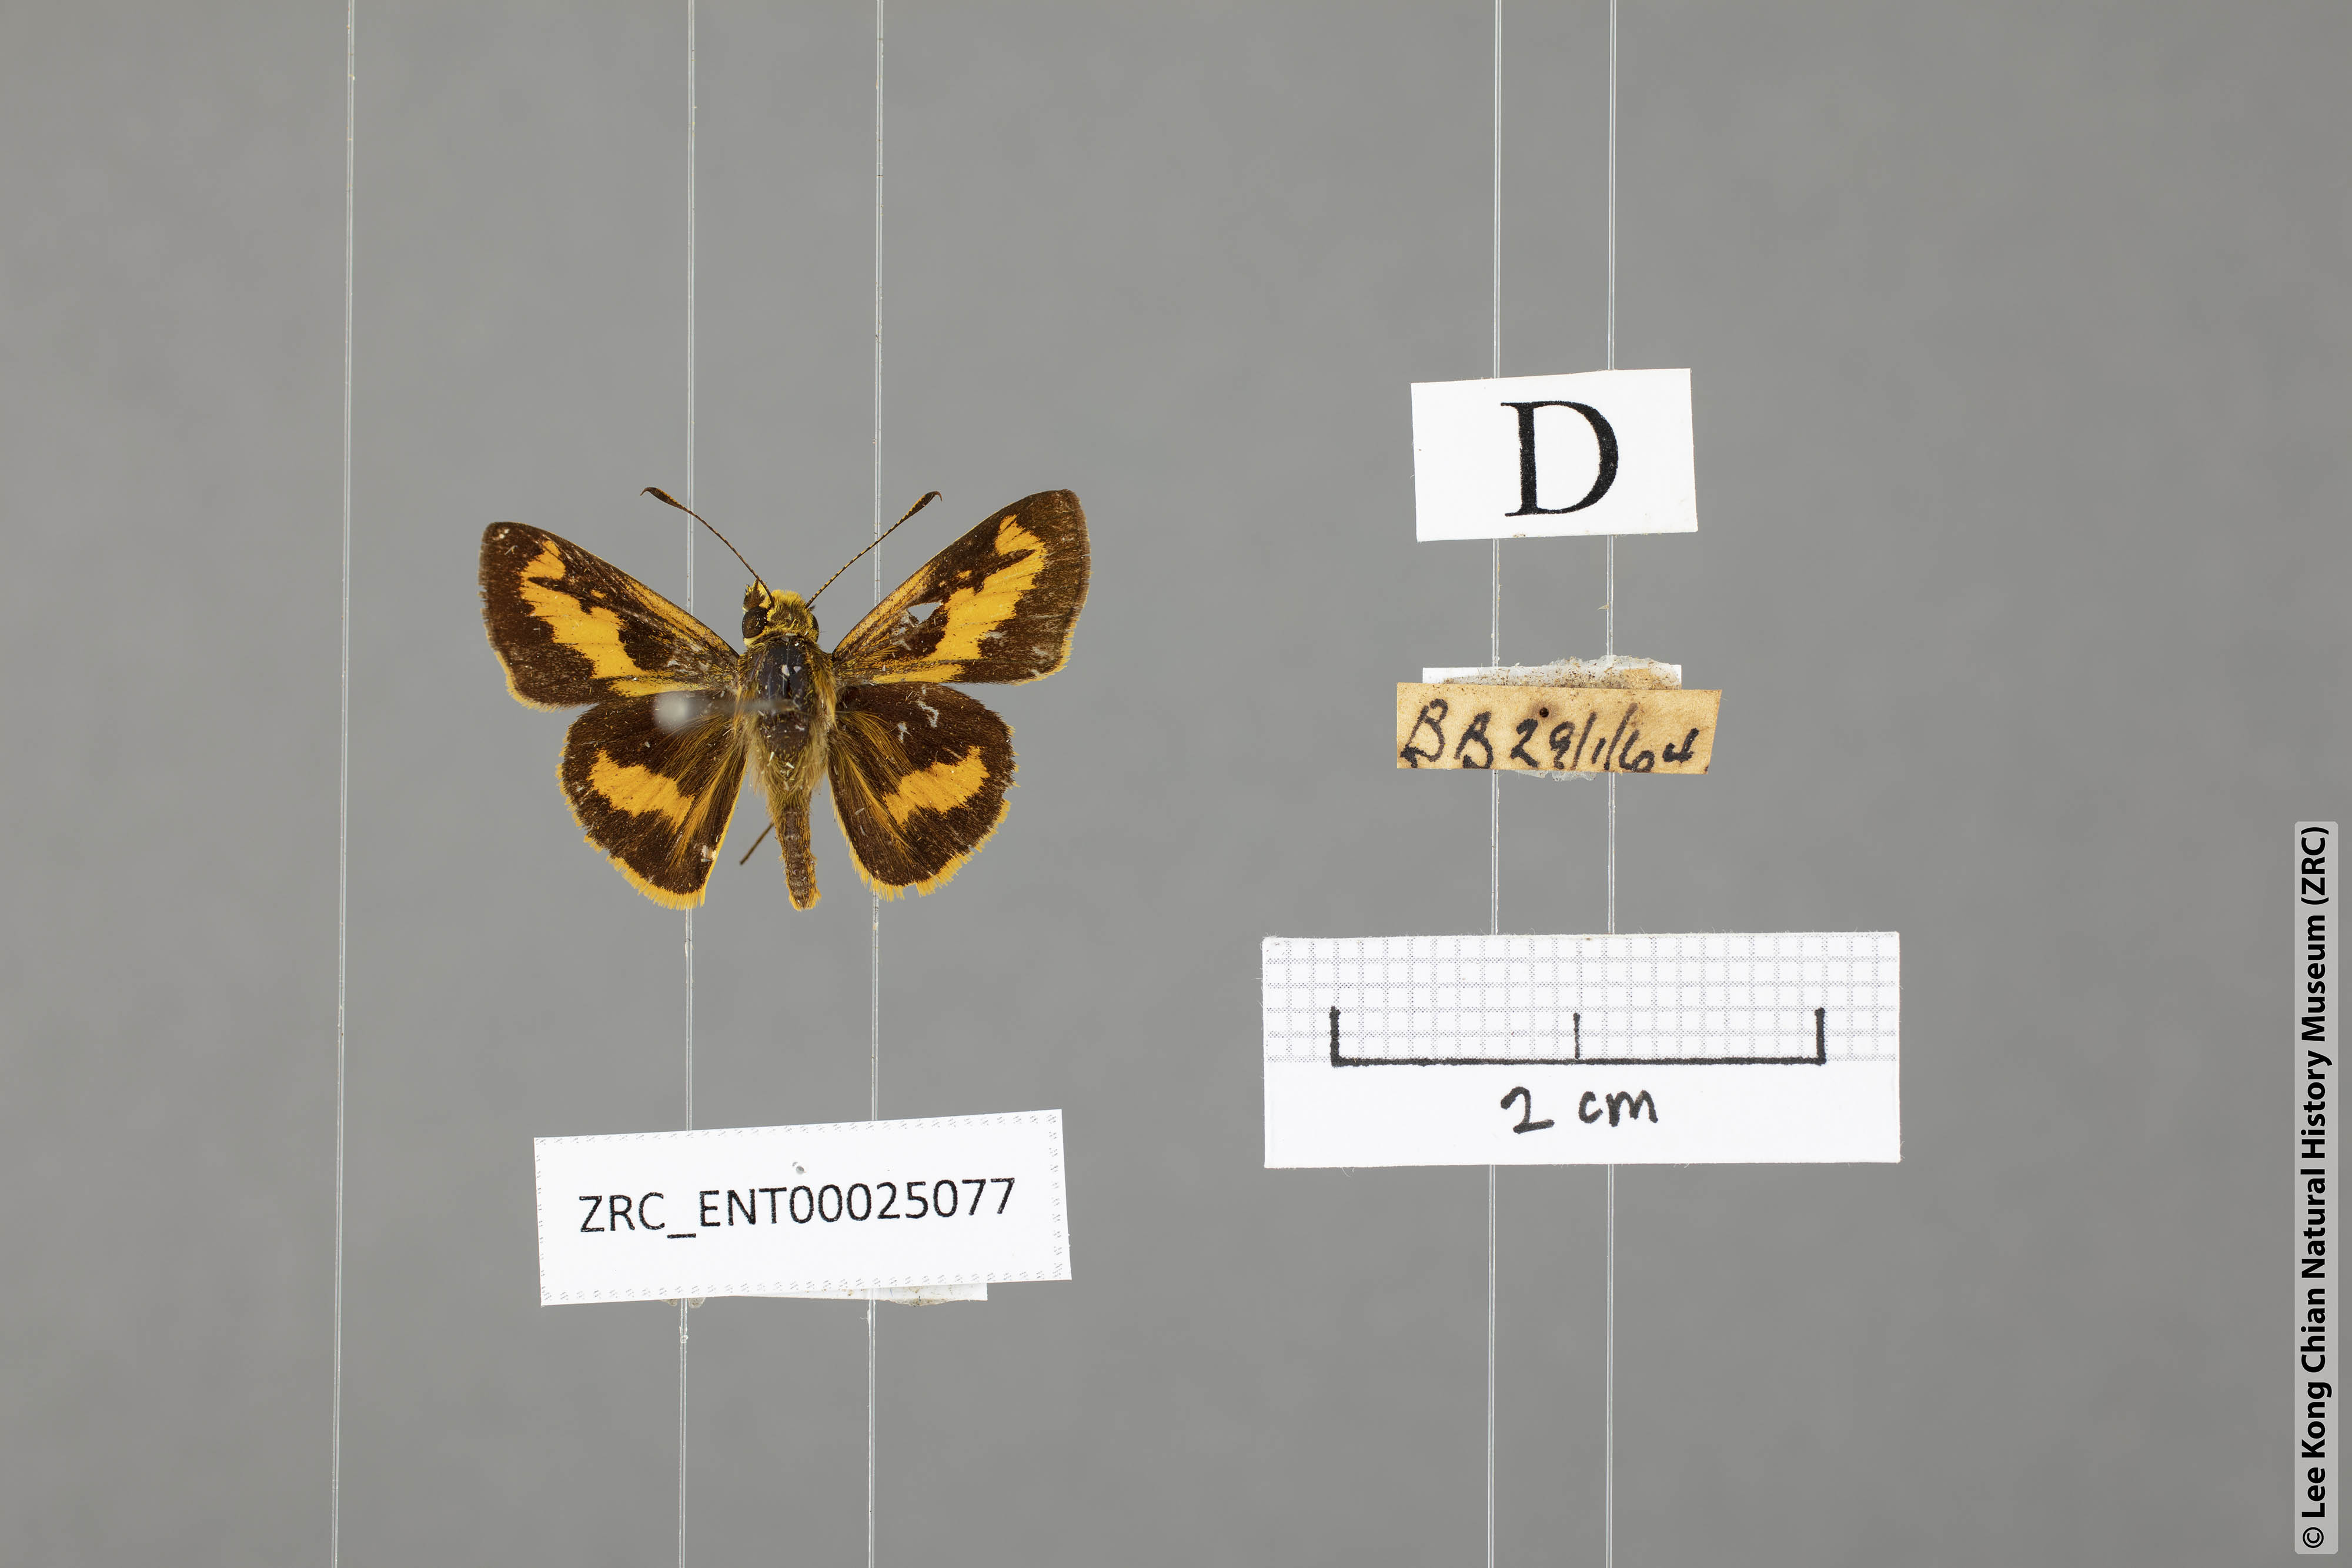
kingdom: Animalia
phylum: Arthropoda
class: Insecta
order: Lepidoptera
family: Hesperiidae
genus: Oriens
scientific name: Oriens gola
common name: Common dartlet
